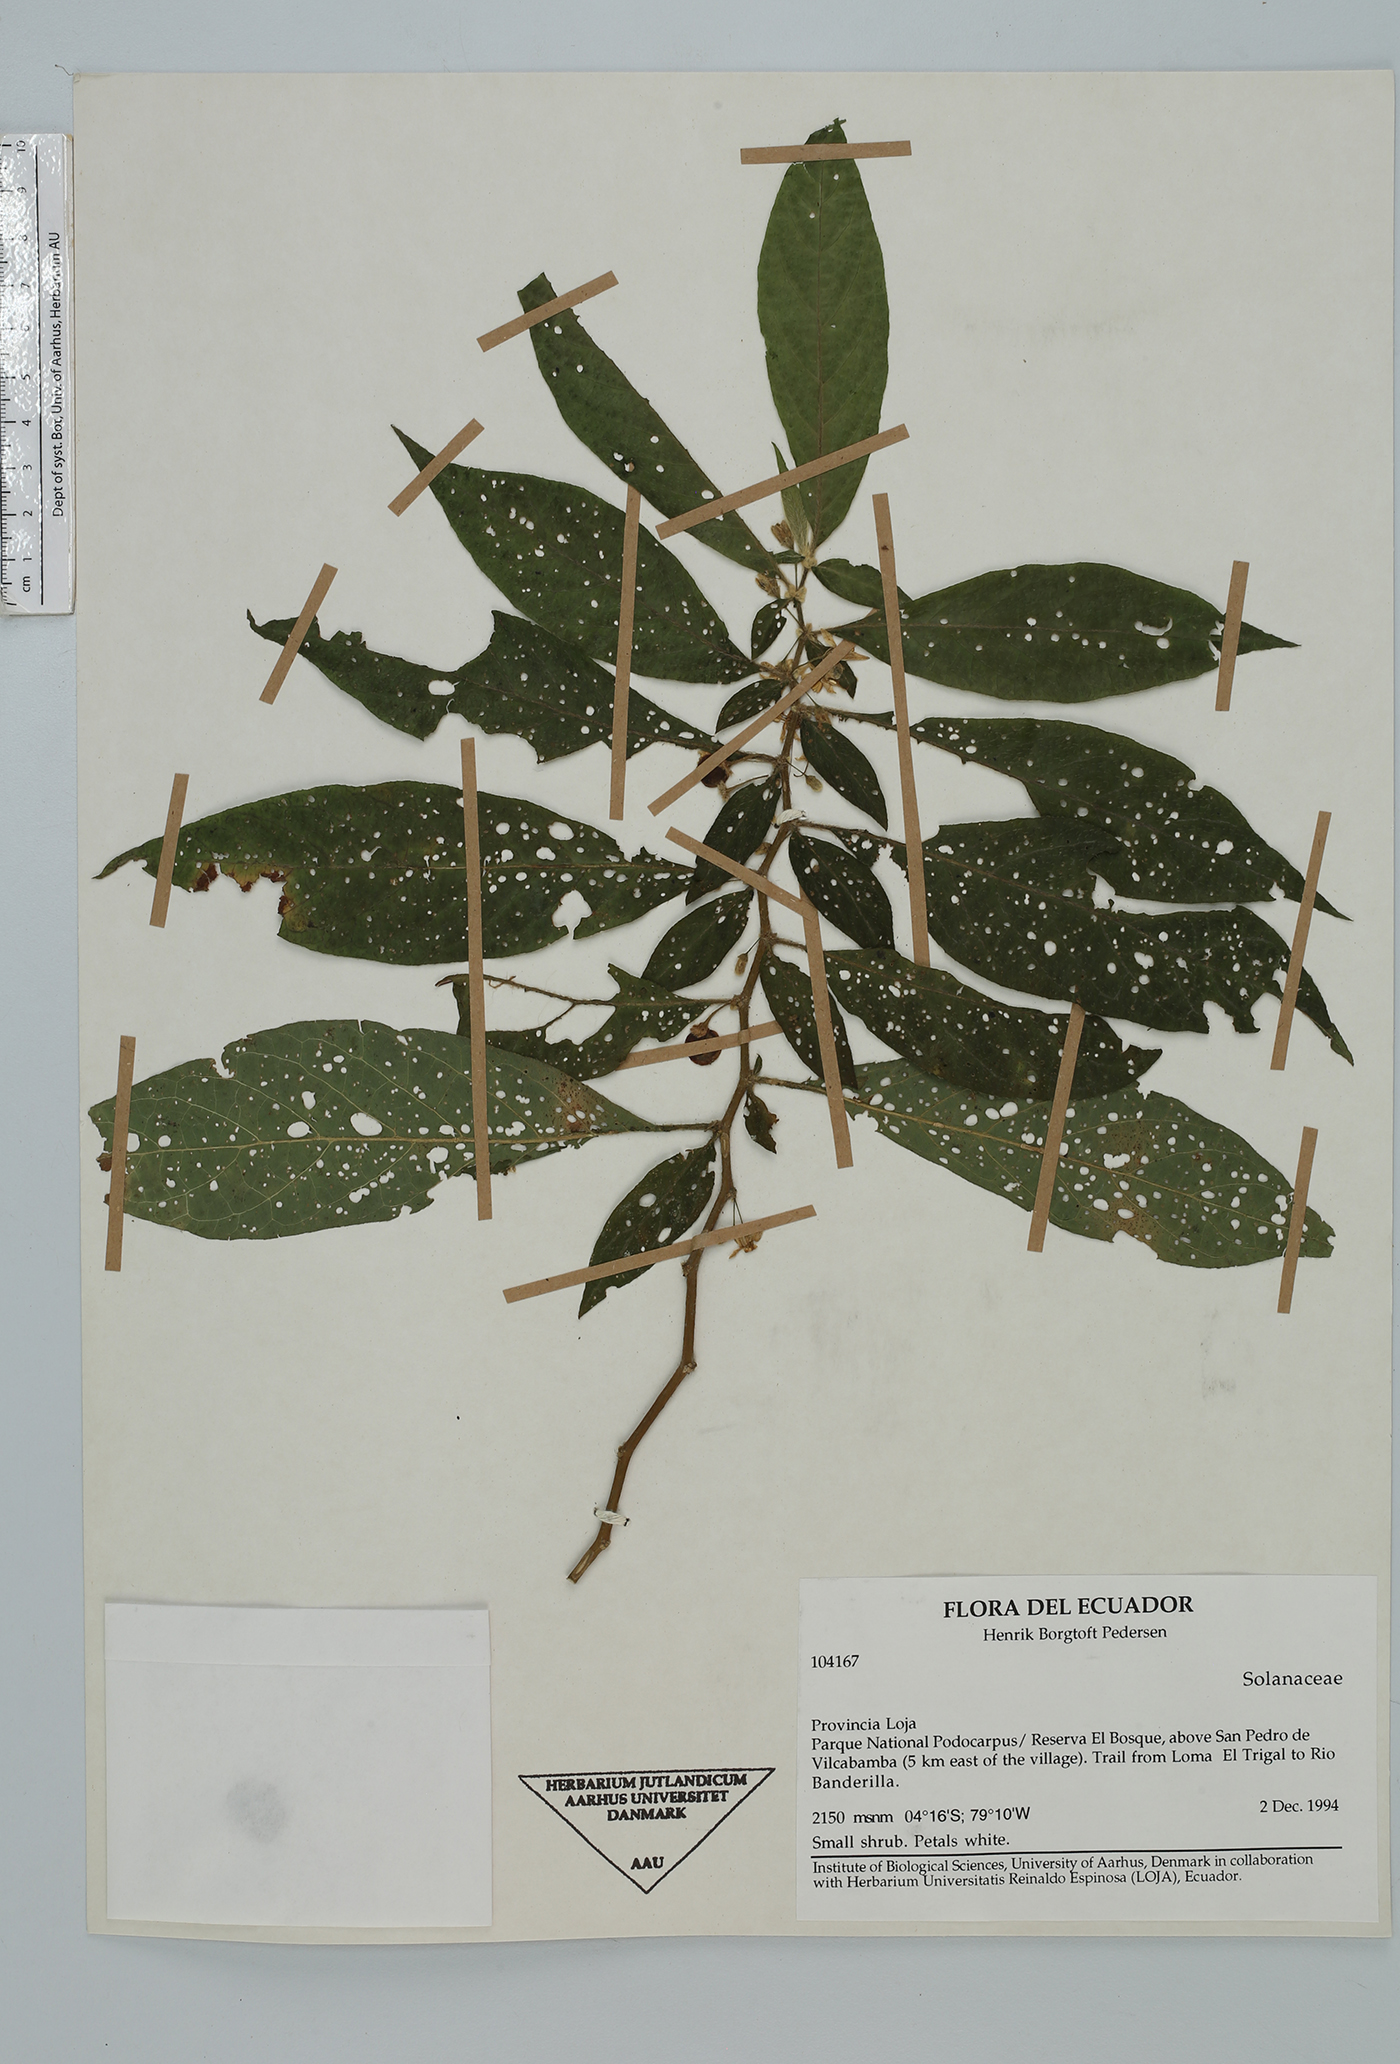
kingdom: Plantae
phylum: Tracheophyta
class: Magnoliopsida
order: Solanales
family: Solanaceae
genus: Lycianthes
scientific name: Lycianthes
